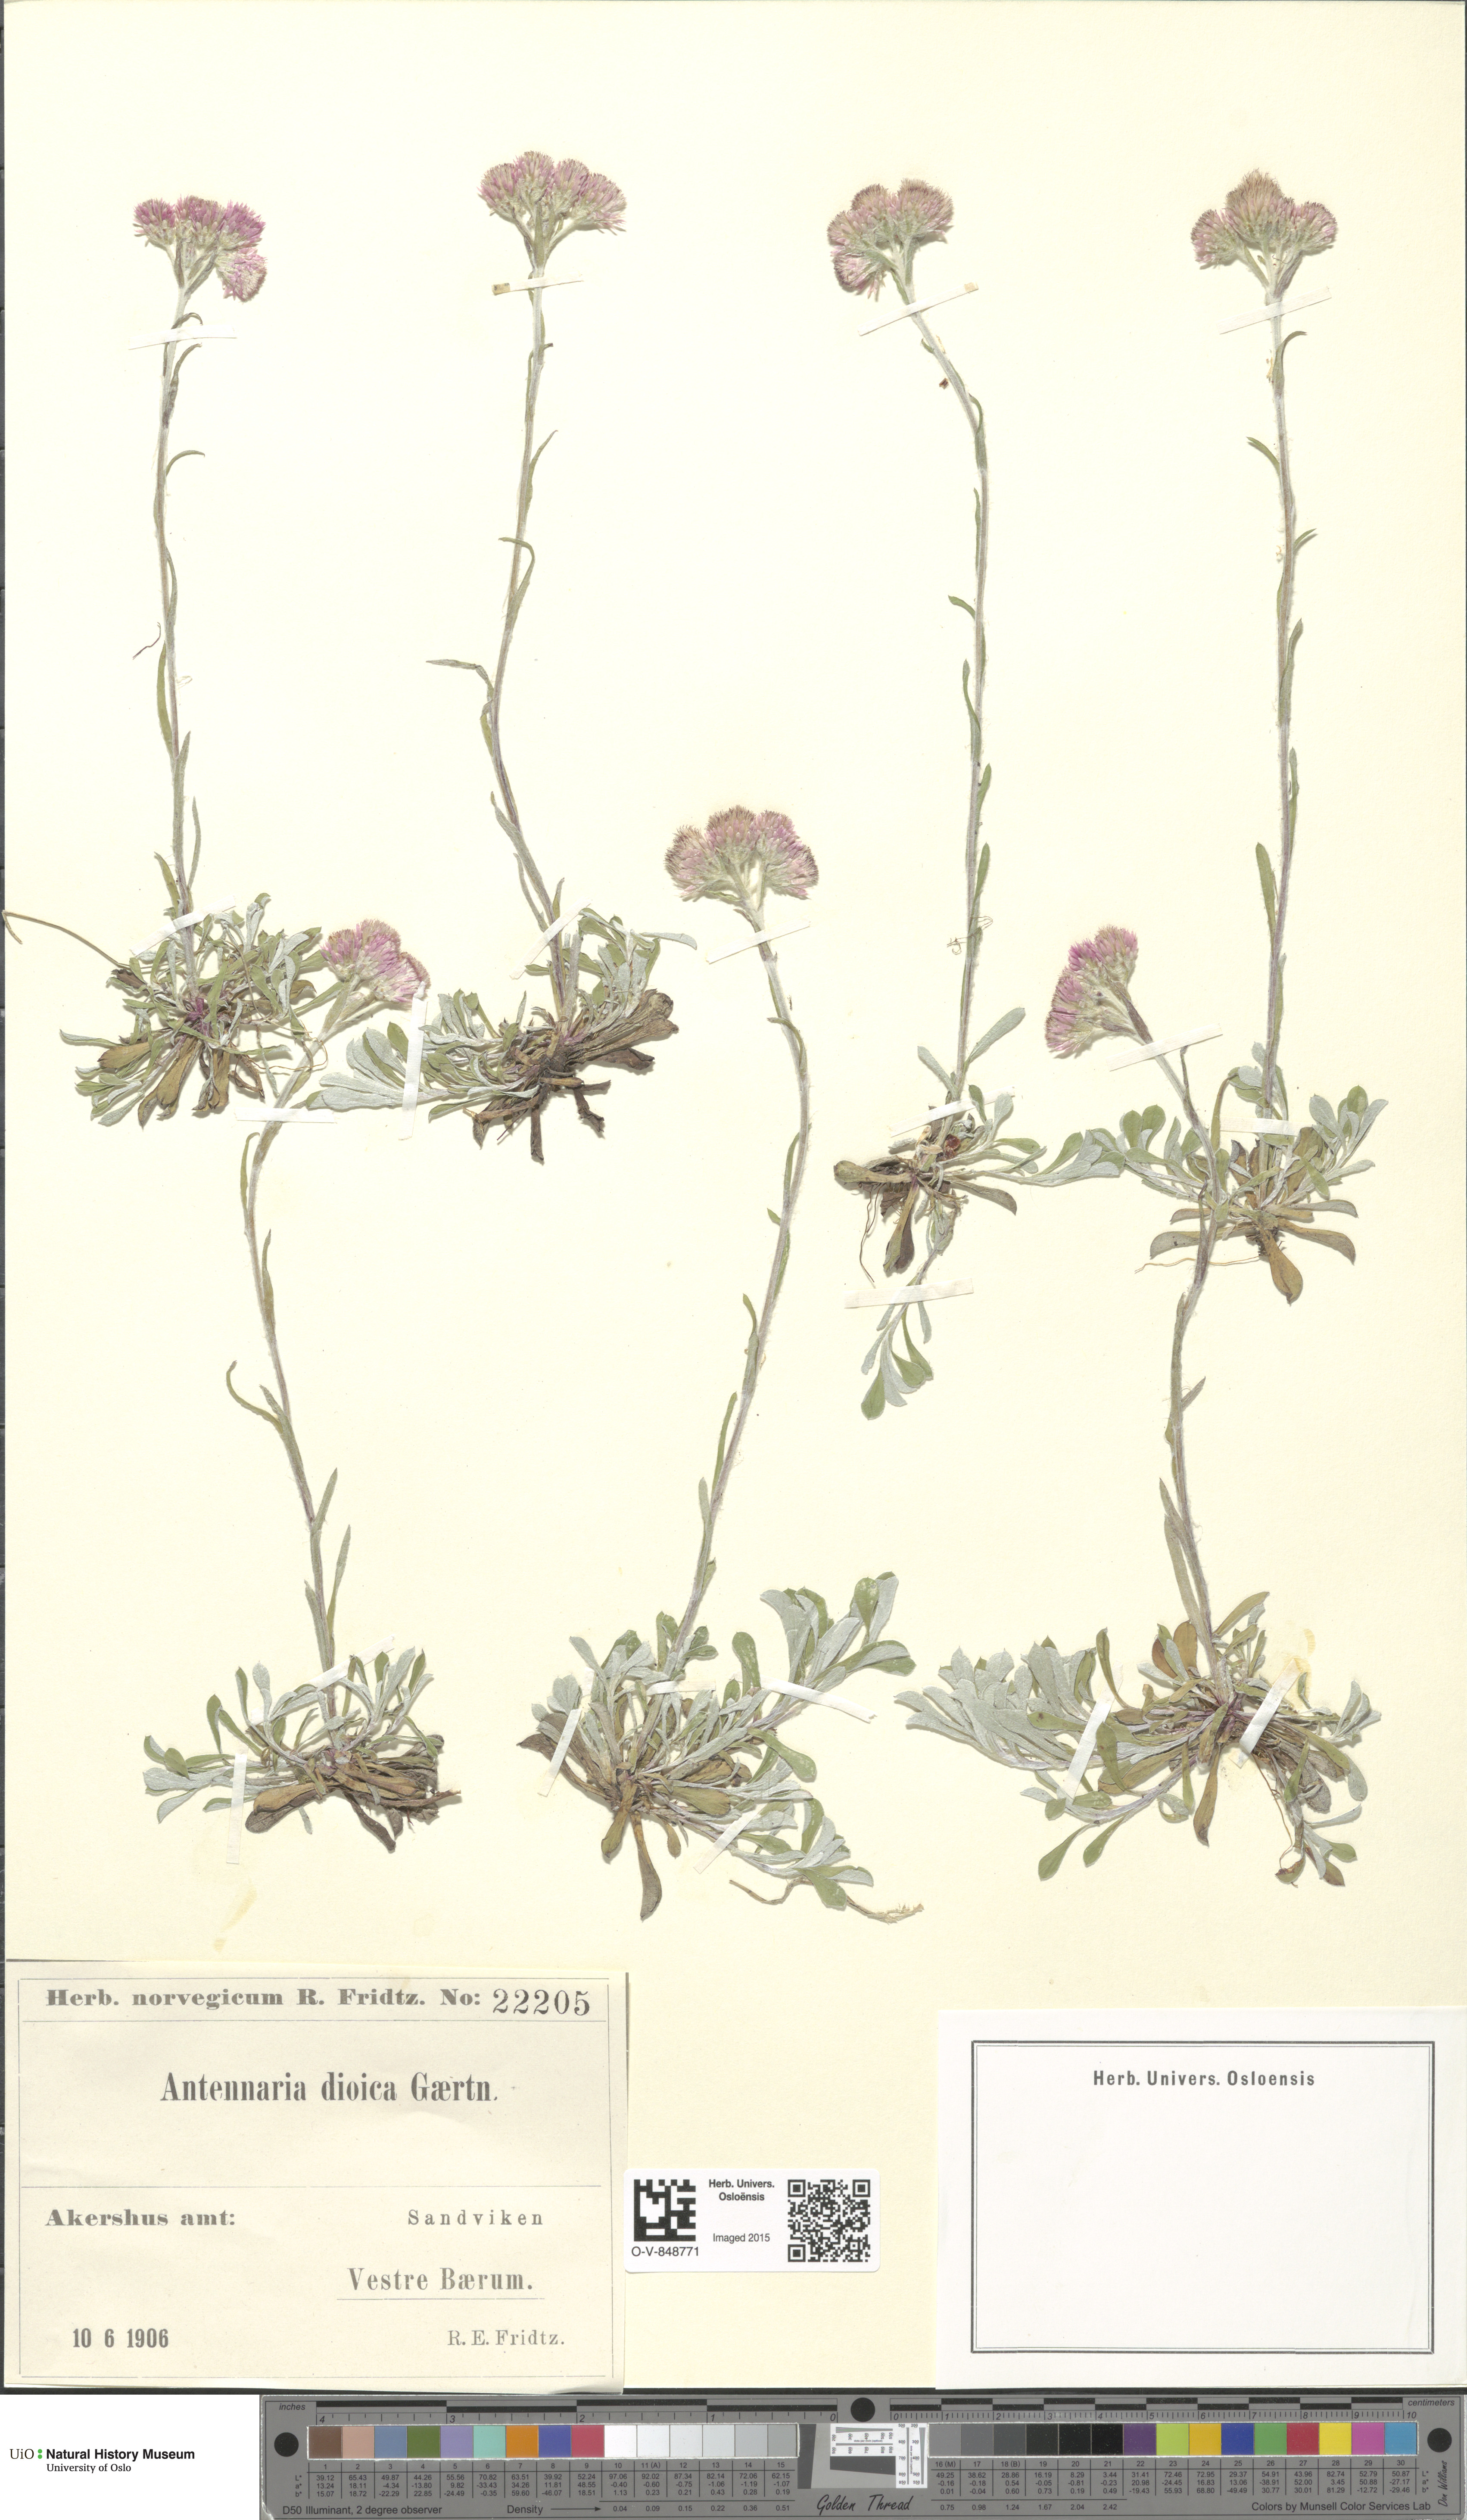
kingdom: Plantae
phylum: Tracheophyta
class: Magnoliopsida
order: Asterales
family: Asteraceae
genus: Antennaria
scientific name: Antennaria dioica
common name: Mountain everlasting
